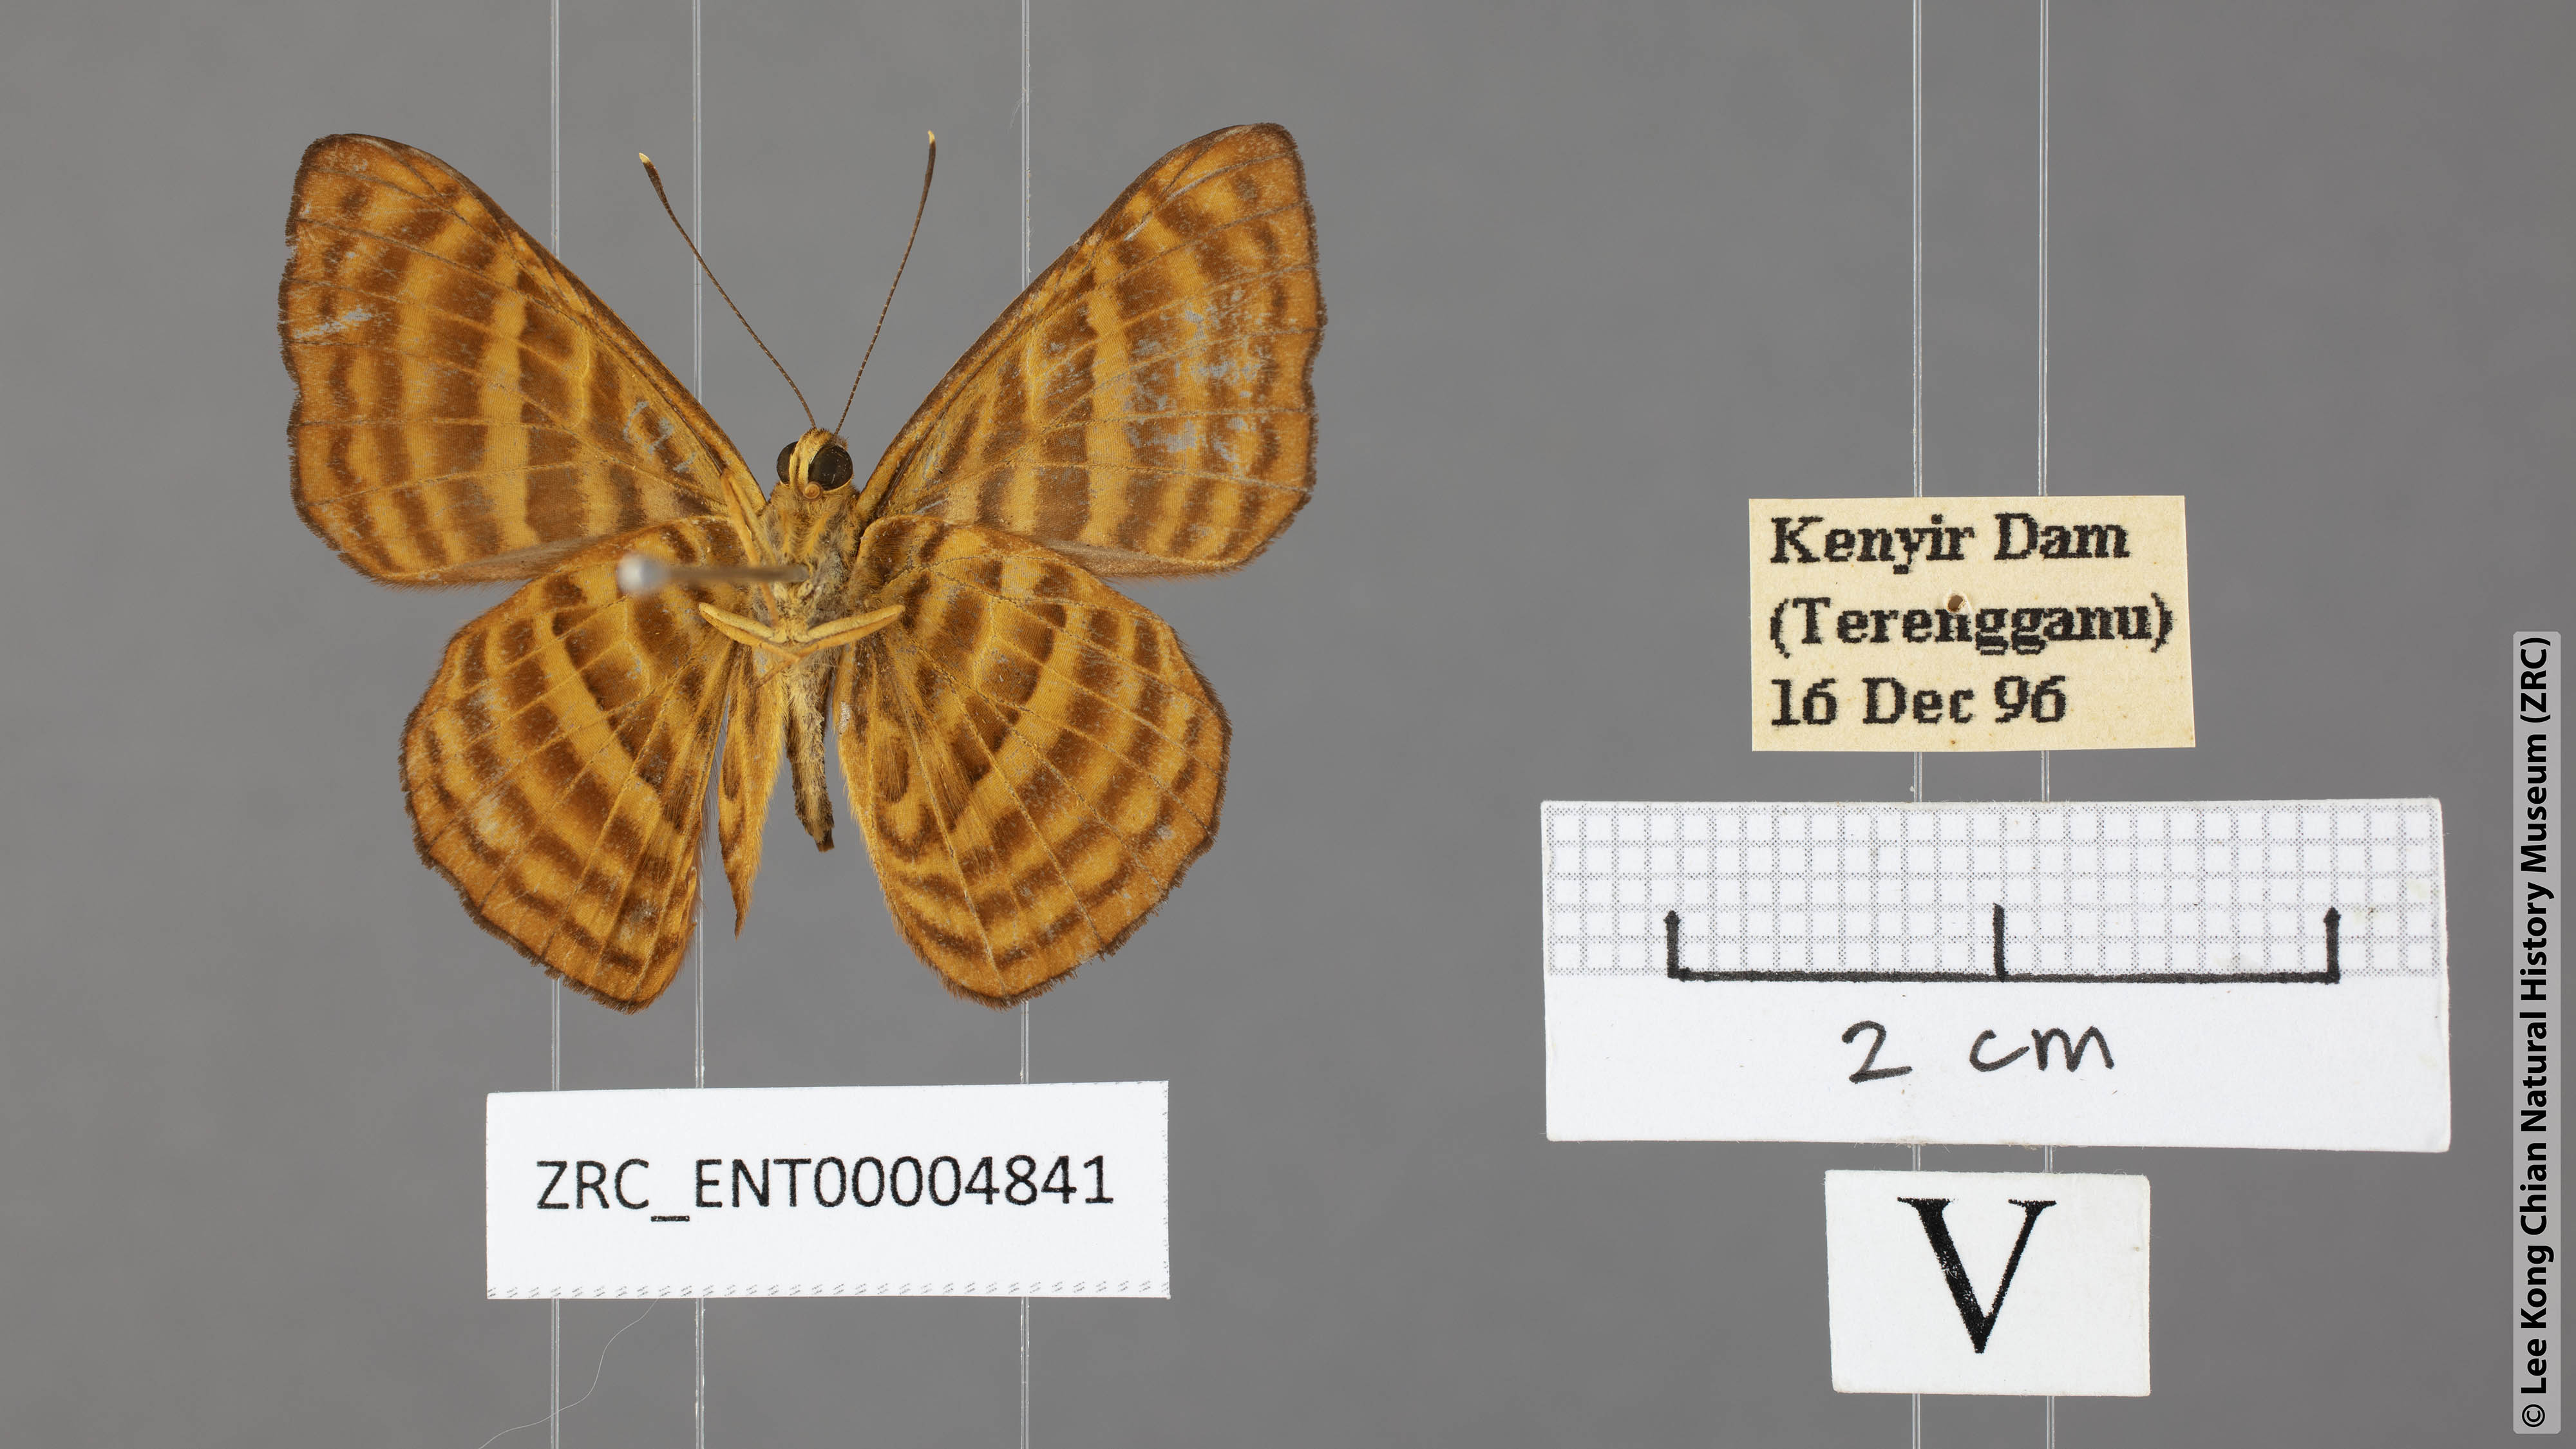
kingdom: Animalia
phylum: Arthropoda
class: Insecta
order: Lepidoptera
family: Riodinidae
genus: Zemeros
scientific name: Zemeros emesoides
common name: Malay punchinello
